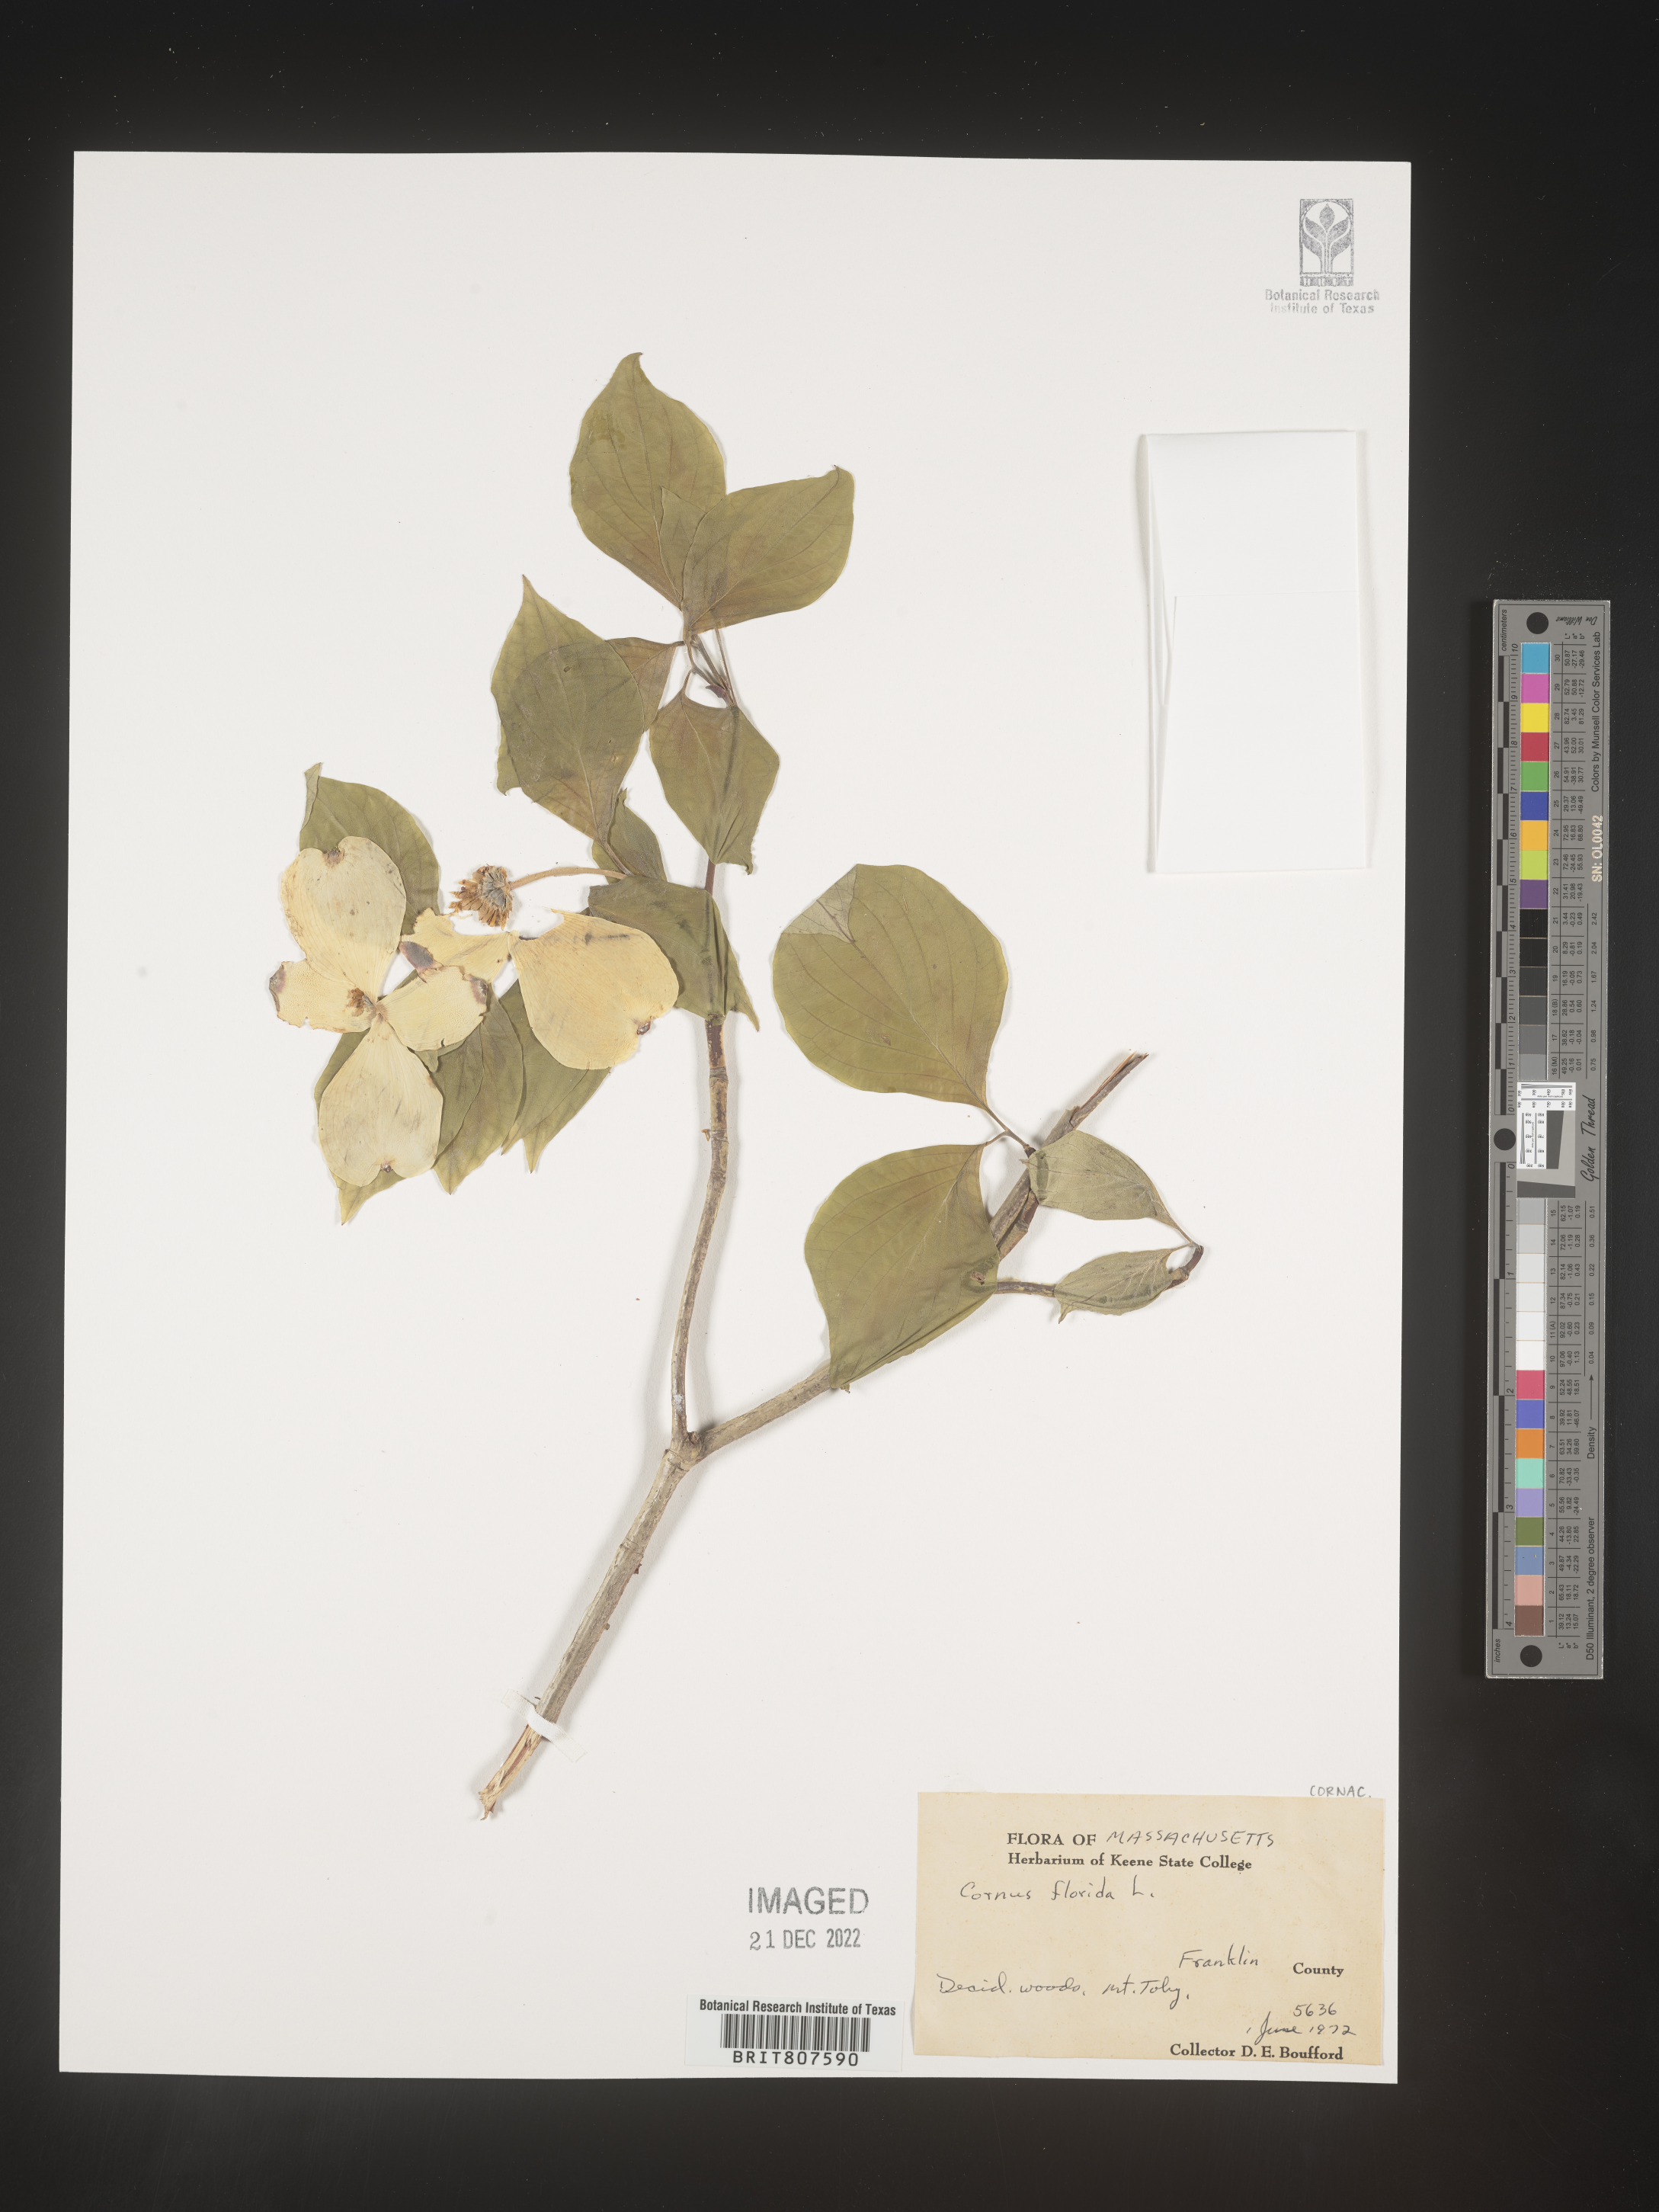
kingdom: Plantae
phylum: Tracheophyta
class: Magnoliopsida
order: Cornales
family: Cornaceae
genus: Cornus
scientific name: Cornus florida
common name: Flowering dogwood
